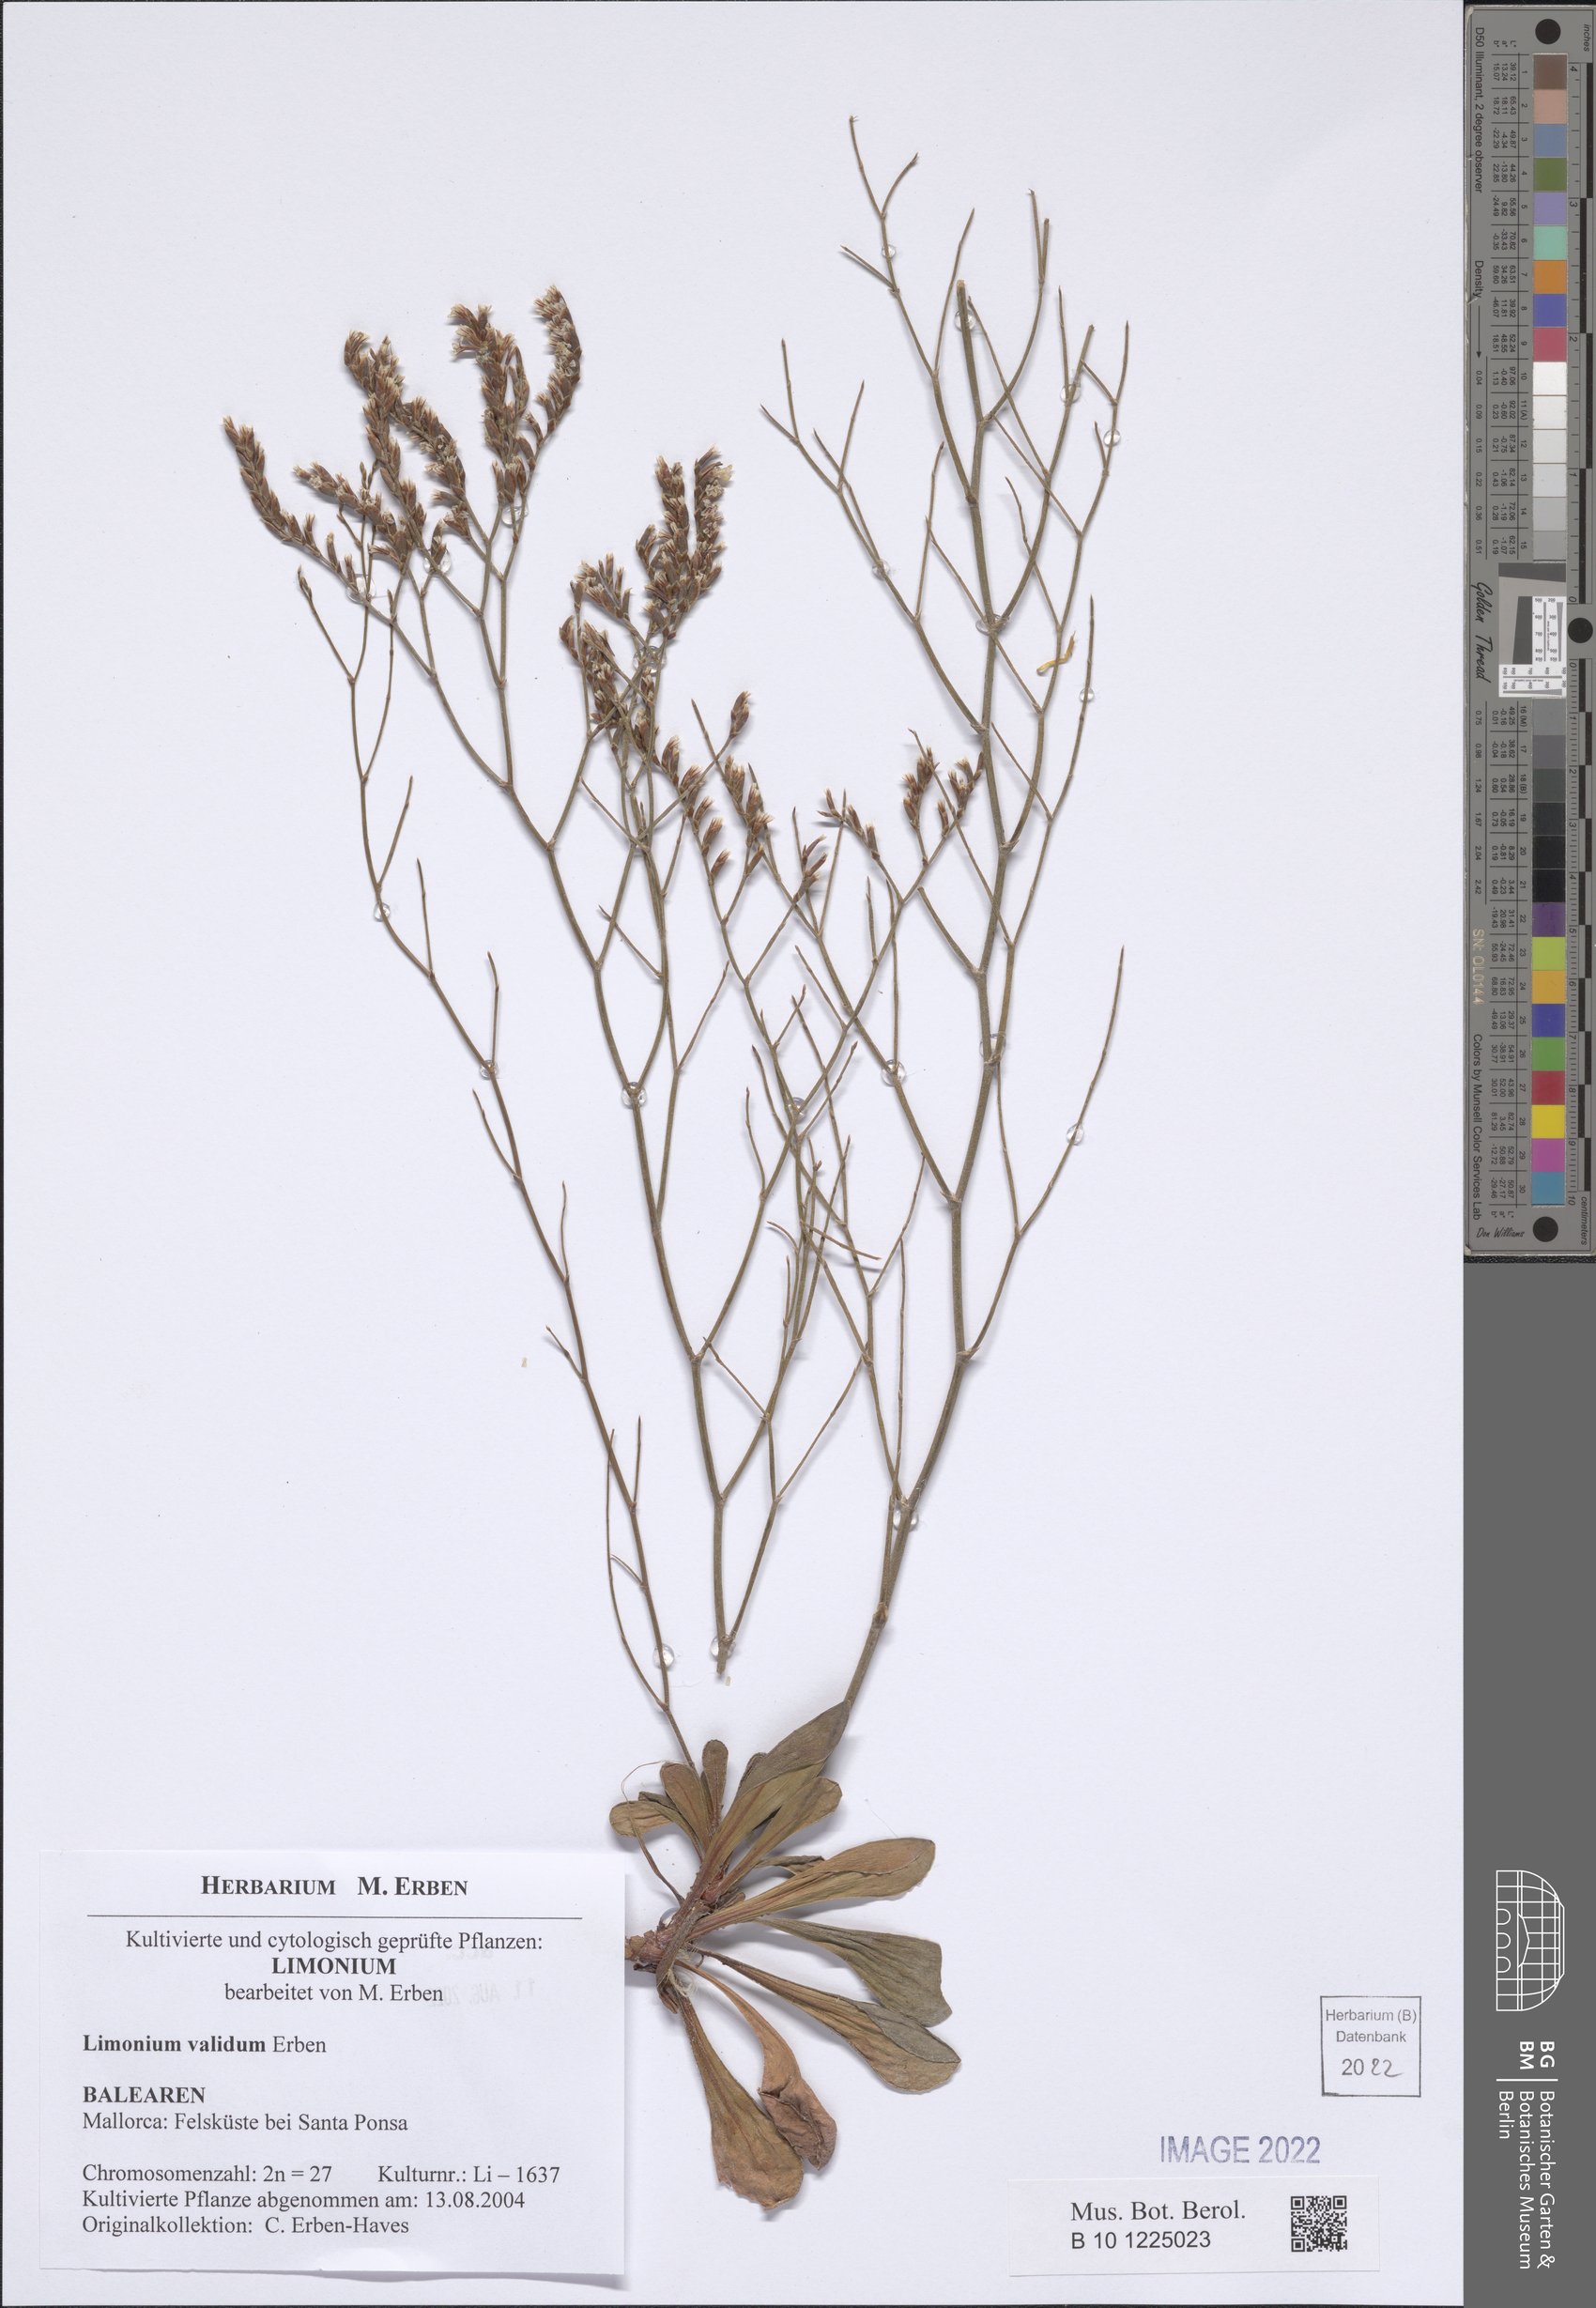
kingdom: Plantae
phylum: Tracheophyta
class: Magnoliopsida
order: Caryophyllales
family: Plumbaginaceae
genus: Limonium
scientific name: Limonium validum
